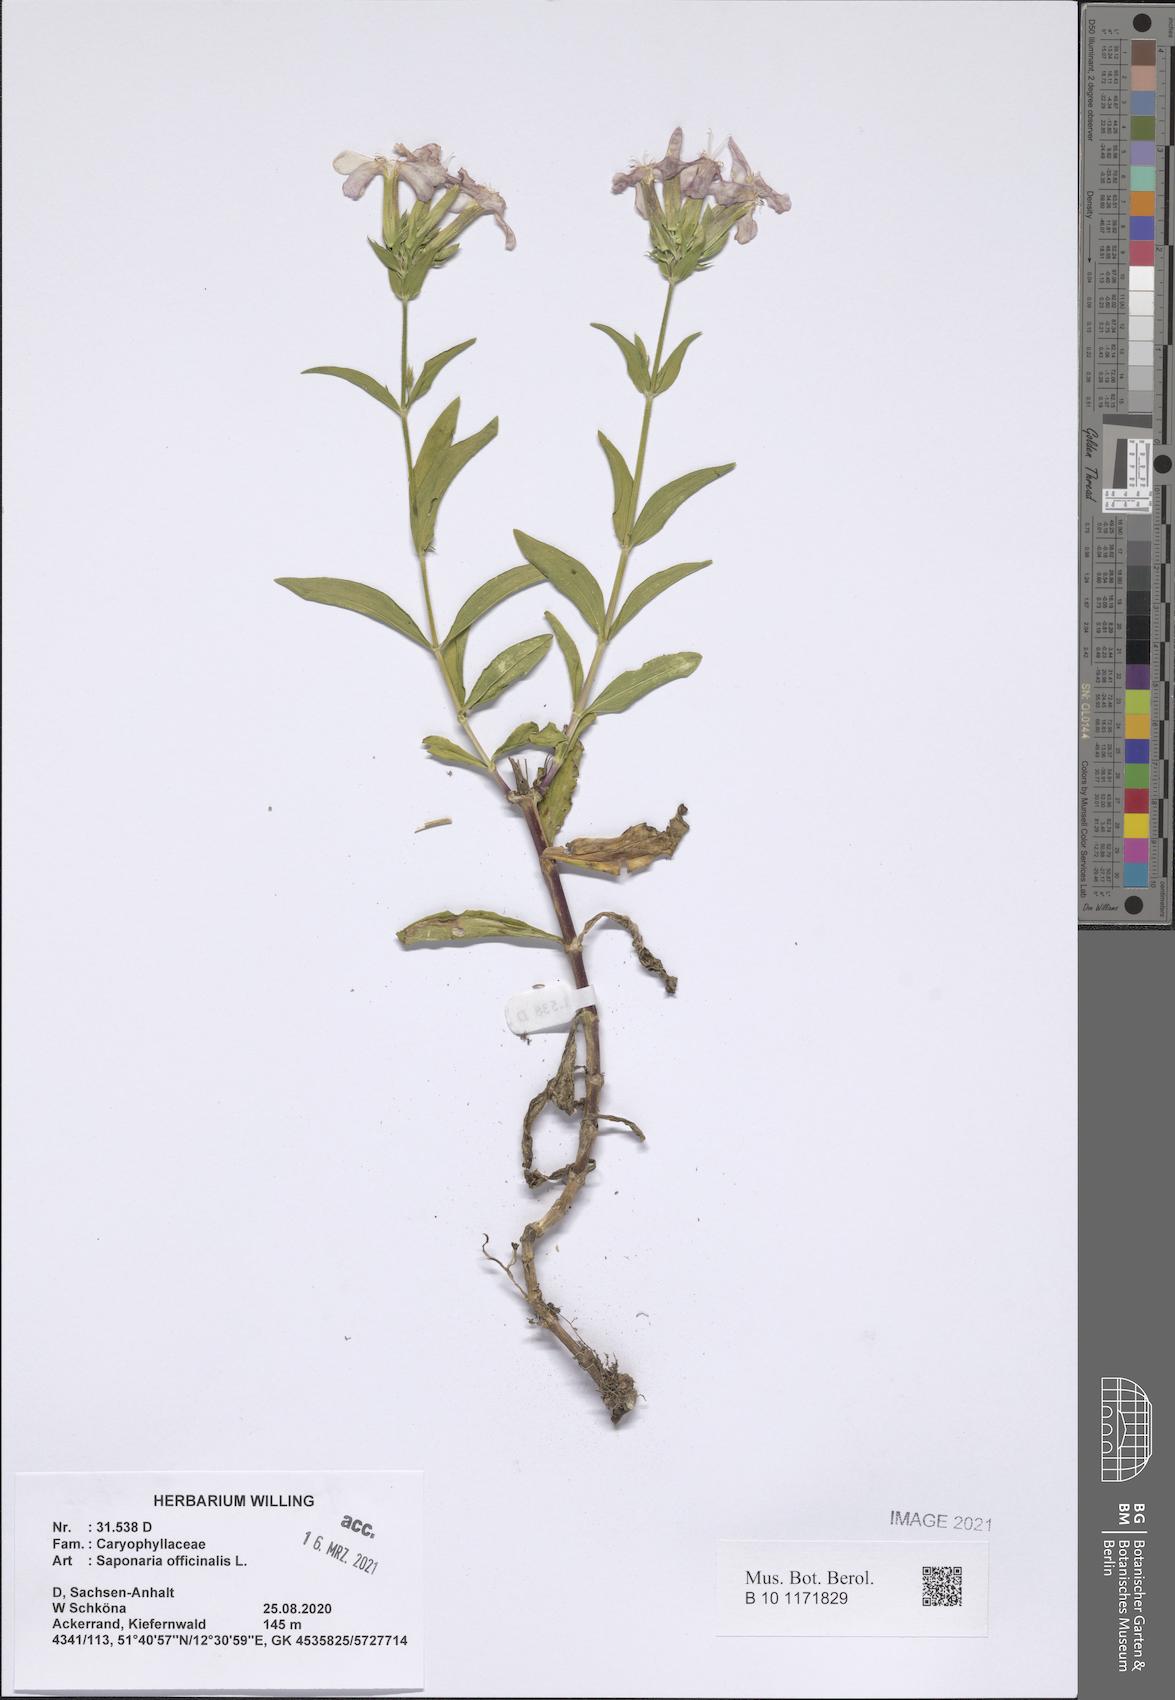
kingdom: Plantae
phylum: Tracheophyta
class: Magnoliopsida
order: Caryophyllales
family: Caryophyllaceae
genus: Saponaria
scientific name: Saponaria officinalis
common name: Soapwort
